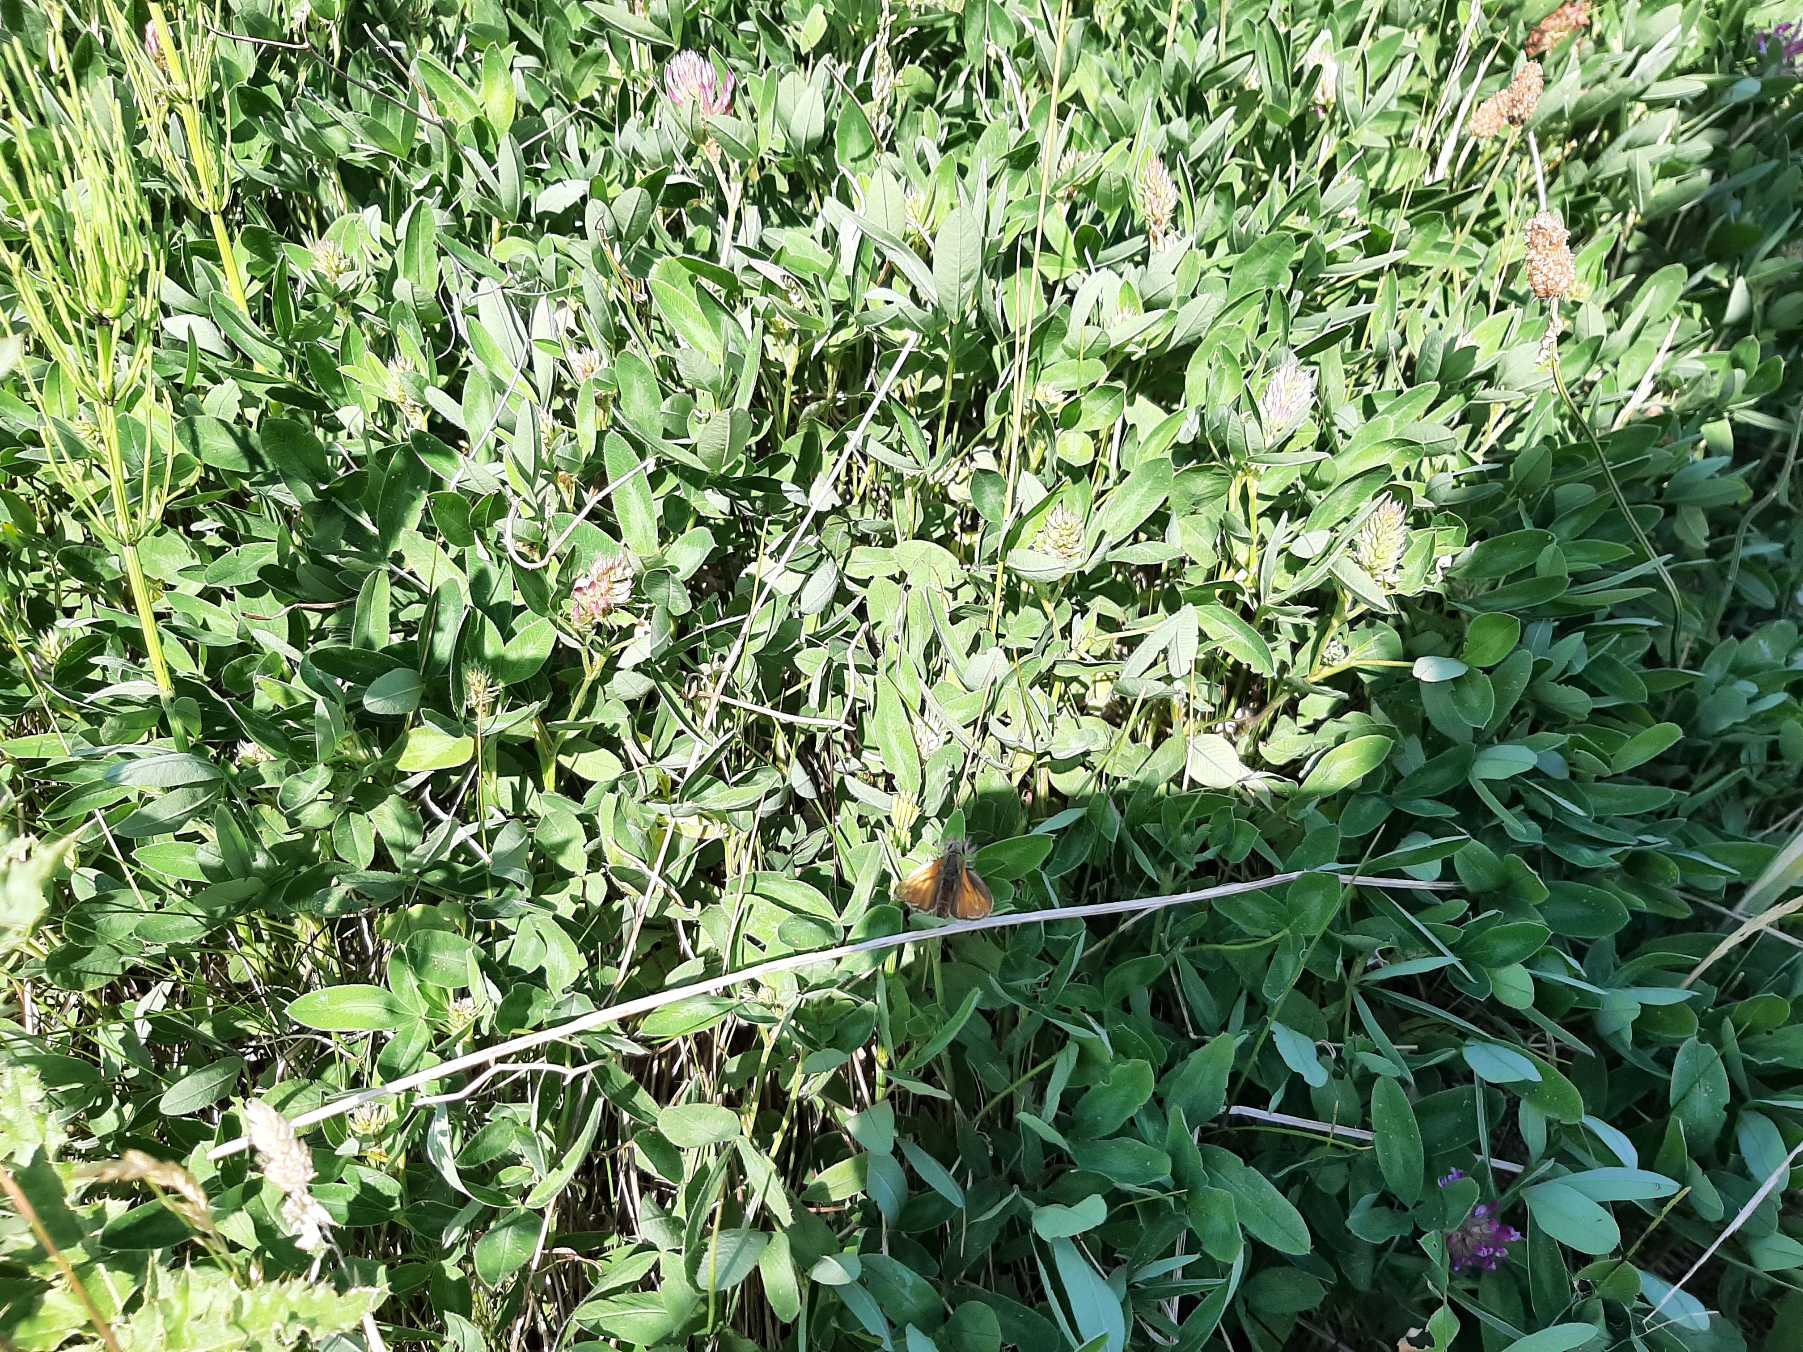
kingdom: Animalia
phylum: Arthropoda
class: Insecta
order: Lepidoptera
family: Hesperiidae
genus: Ochlodes
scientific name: Ochlodes venata
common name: Stor bredpande
